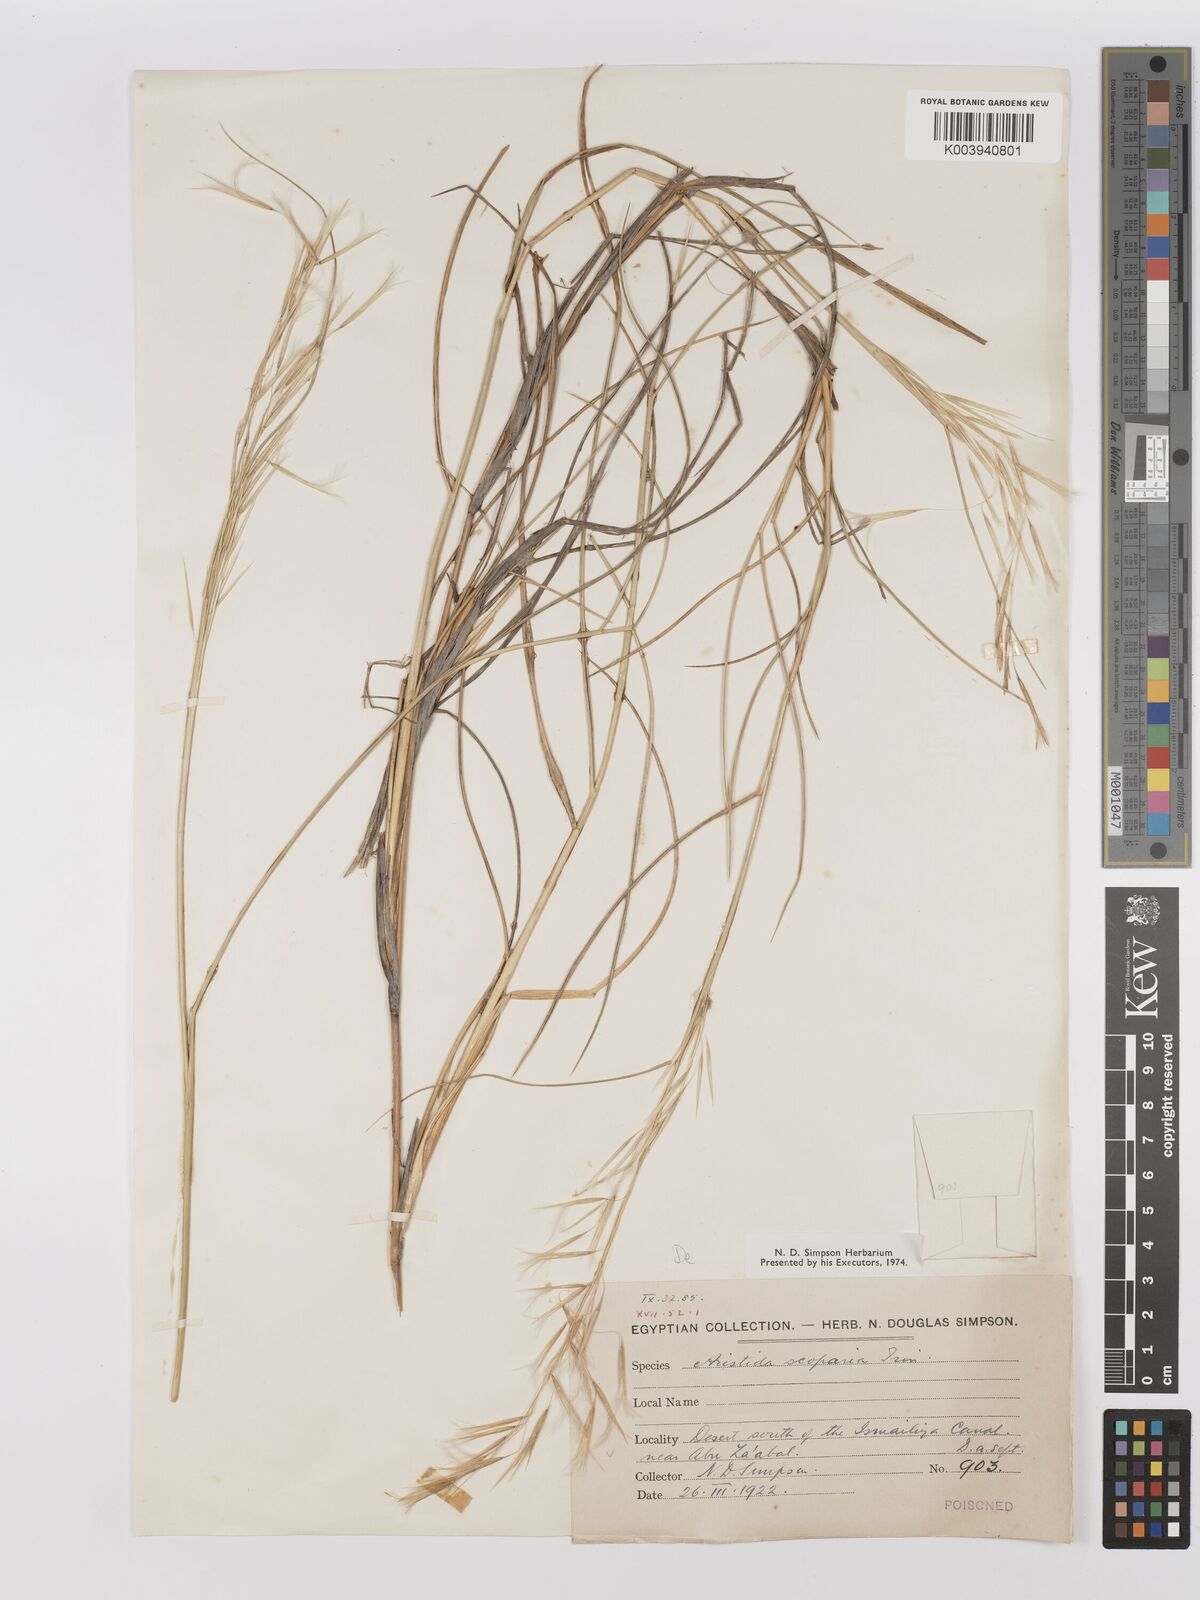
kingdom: Plantae
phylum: Tracheophyta
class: Liliopsida
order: Poales
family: Poaceae
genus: Stipagrostis
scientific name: Stipagrostis scoparia
